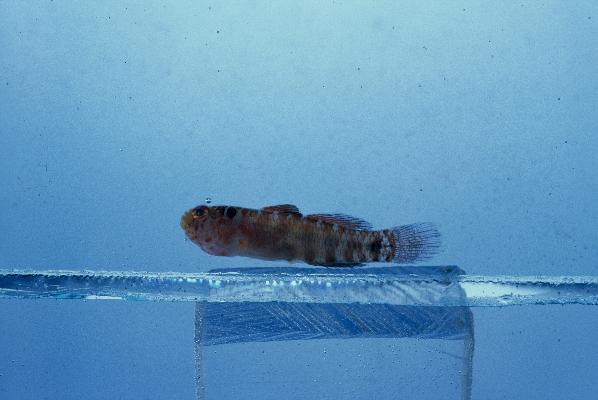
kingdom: Animalia
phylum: Chordata
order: Perciformes
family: Gobiidae
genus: Eviota
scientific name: Eviota sodwanaensis
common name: Sodwana dwarfgoby
